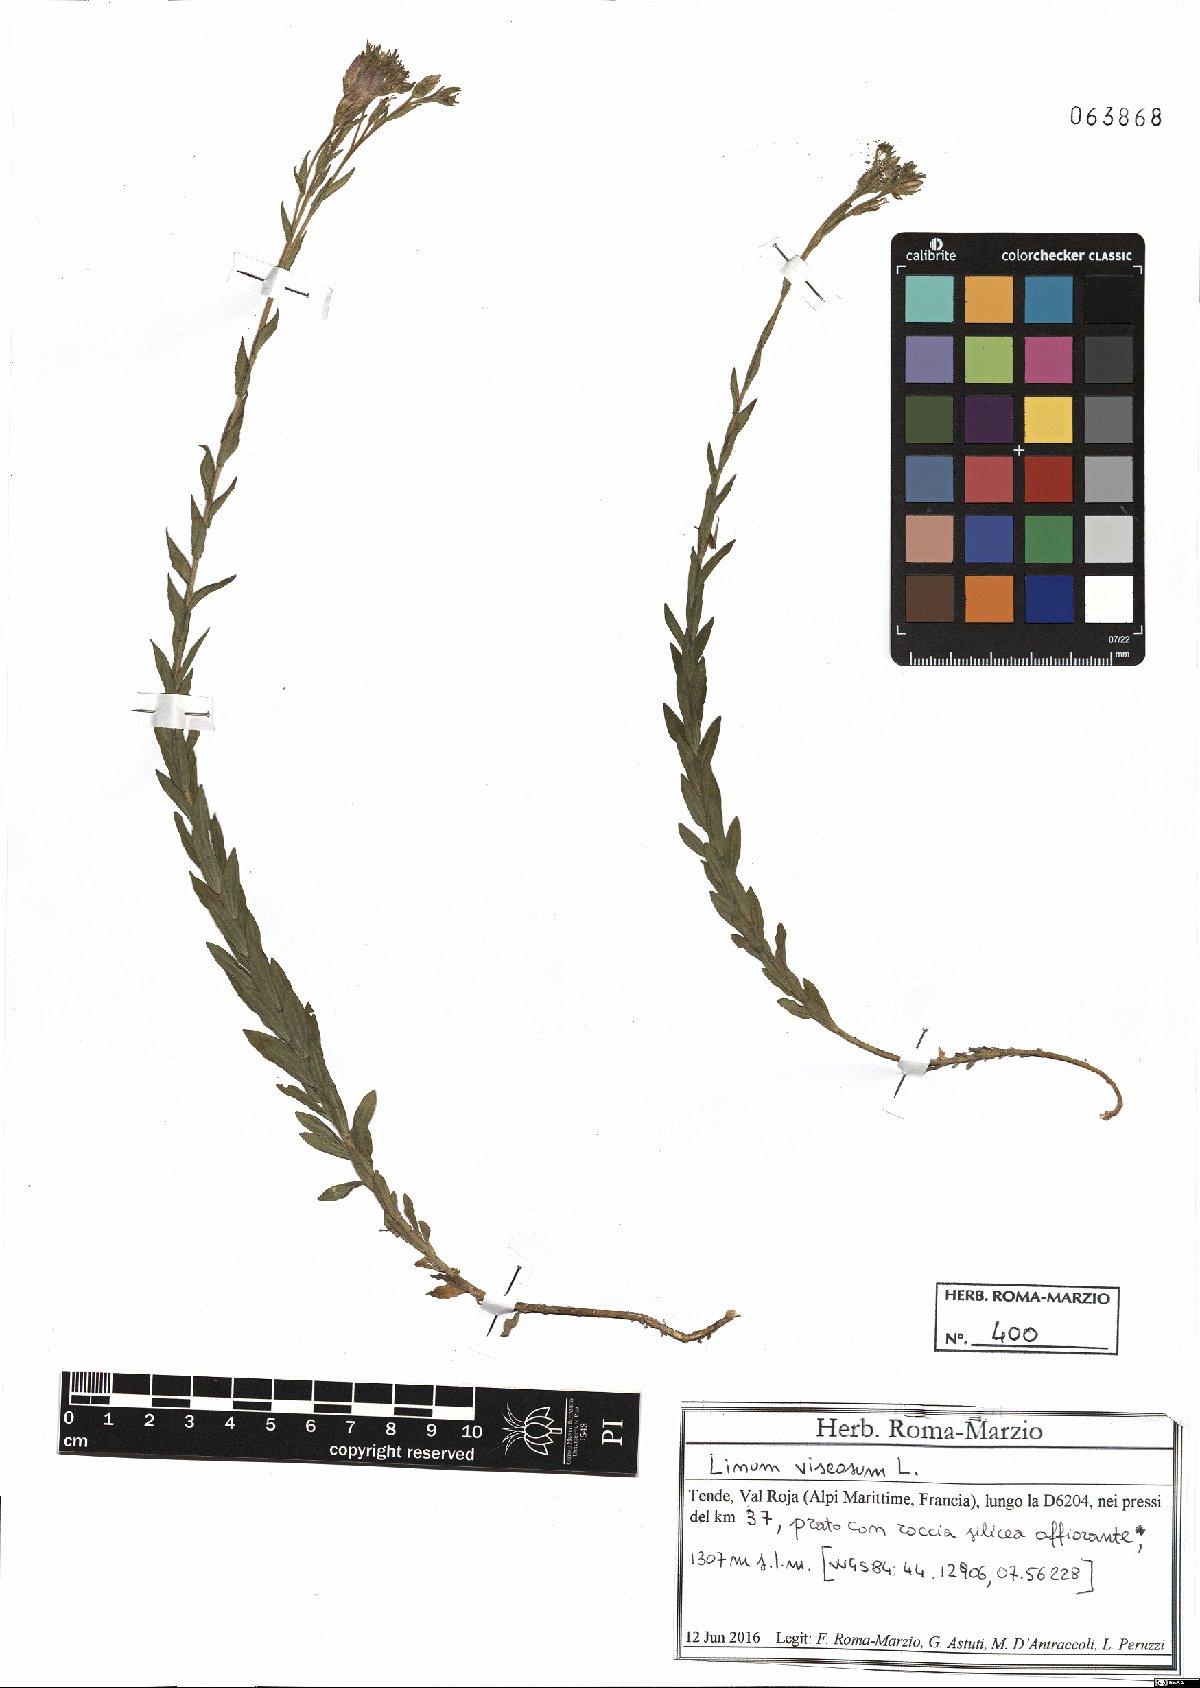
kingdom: Plantae
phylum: Tracheophyta
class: Magnoliopsida
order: Malpighiales
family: Linaceae
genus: Linum
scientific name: Linum viscosum
